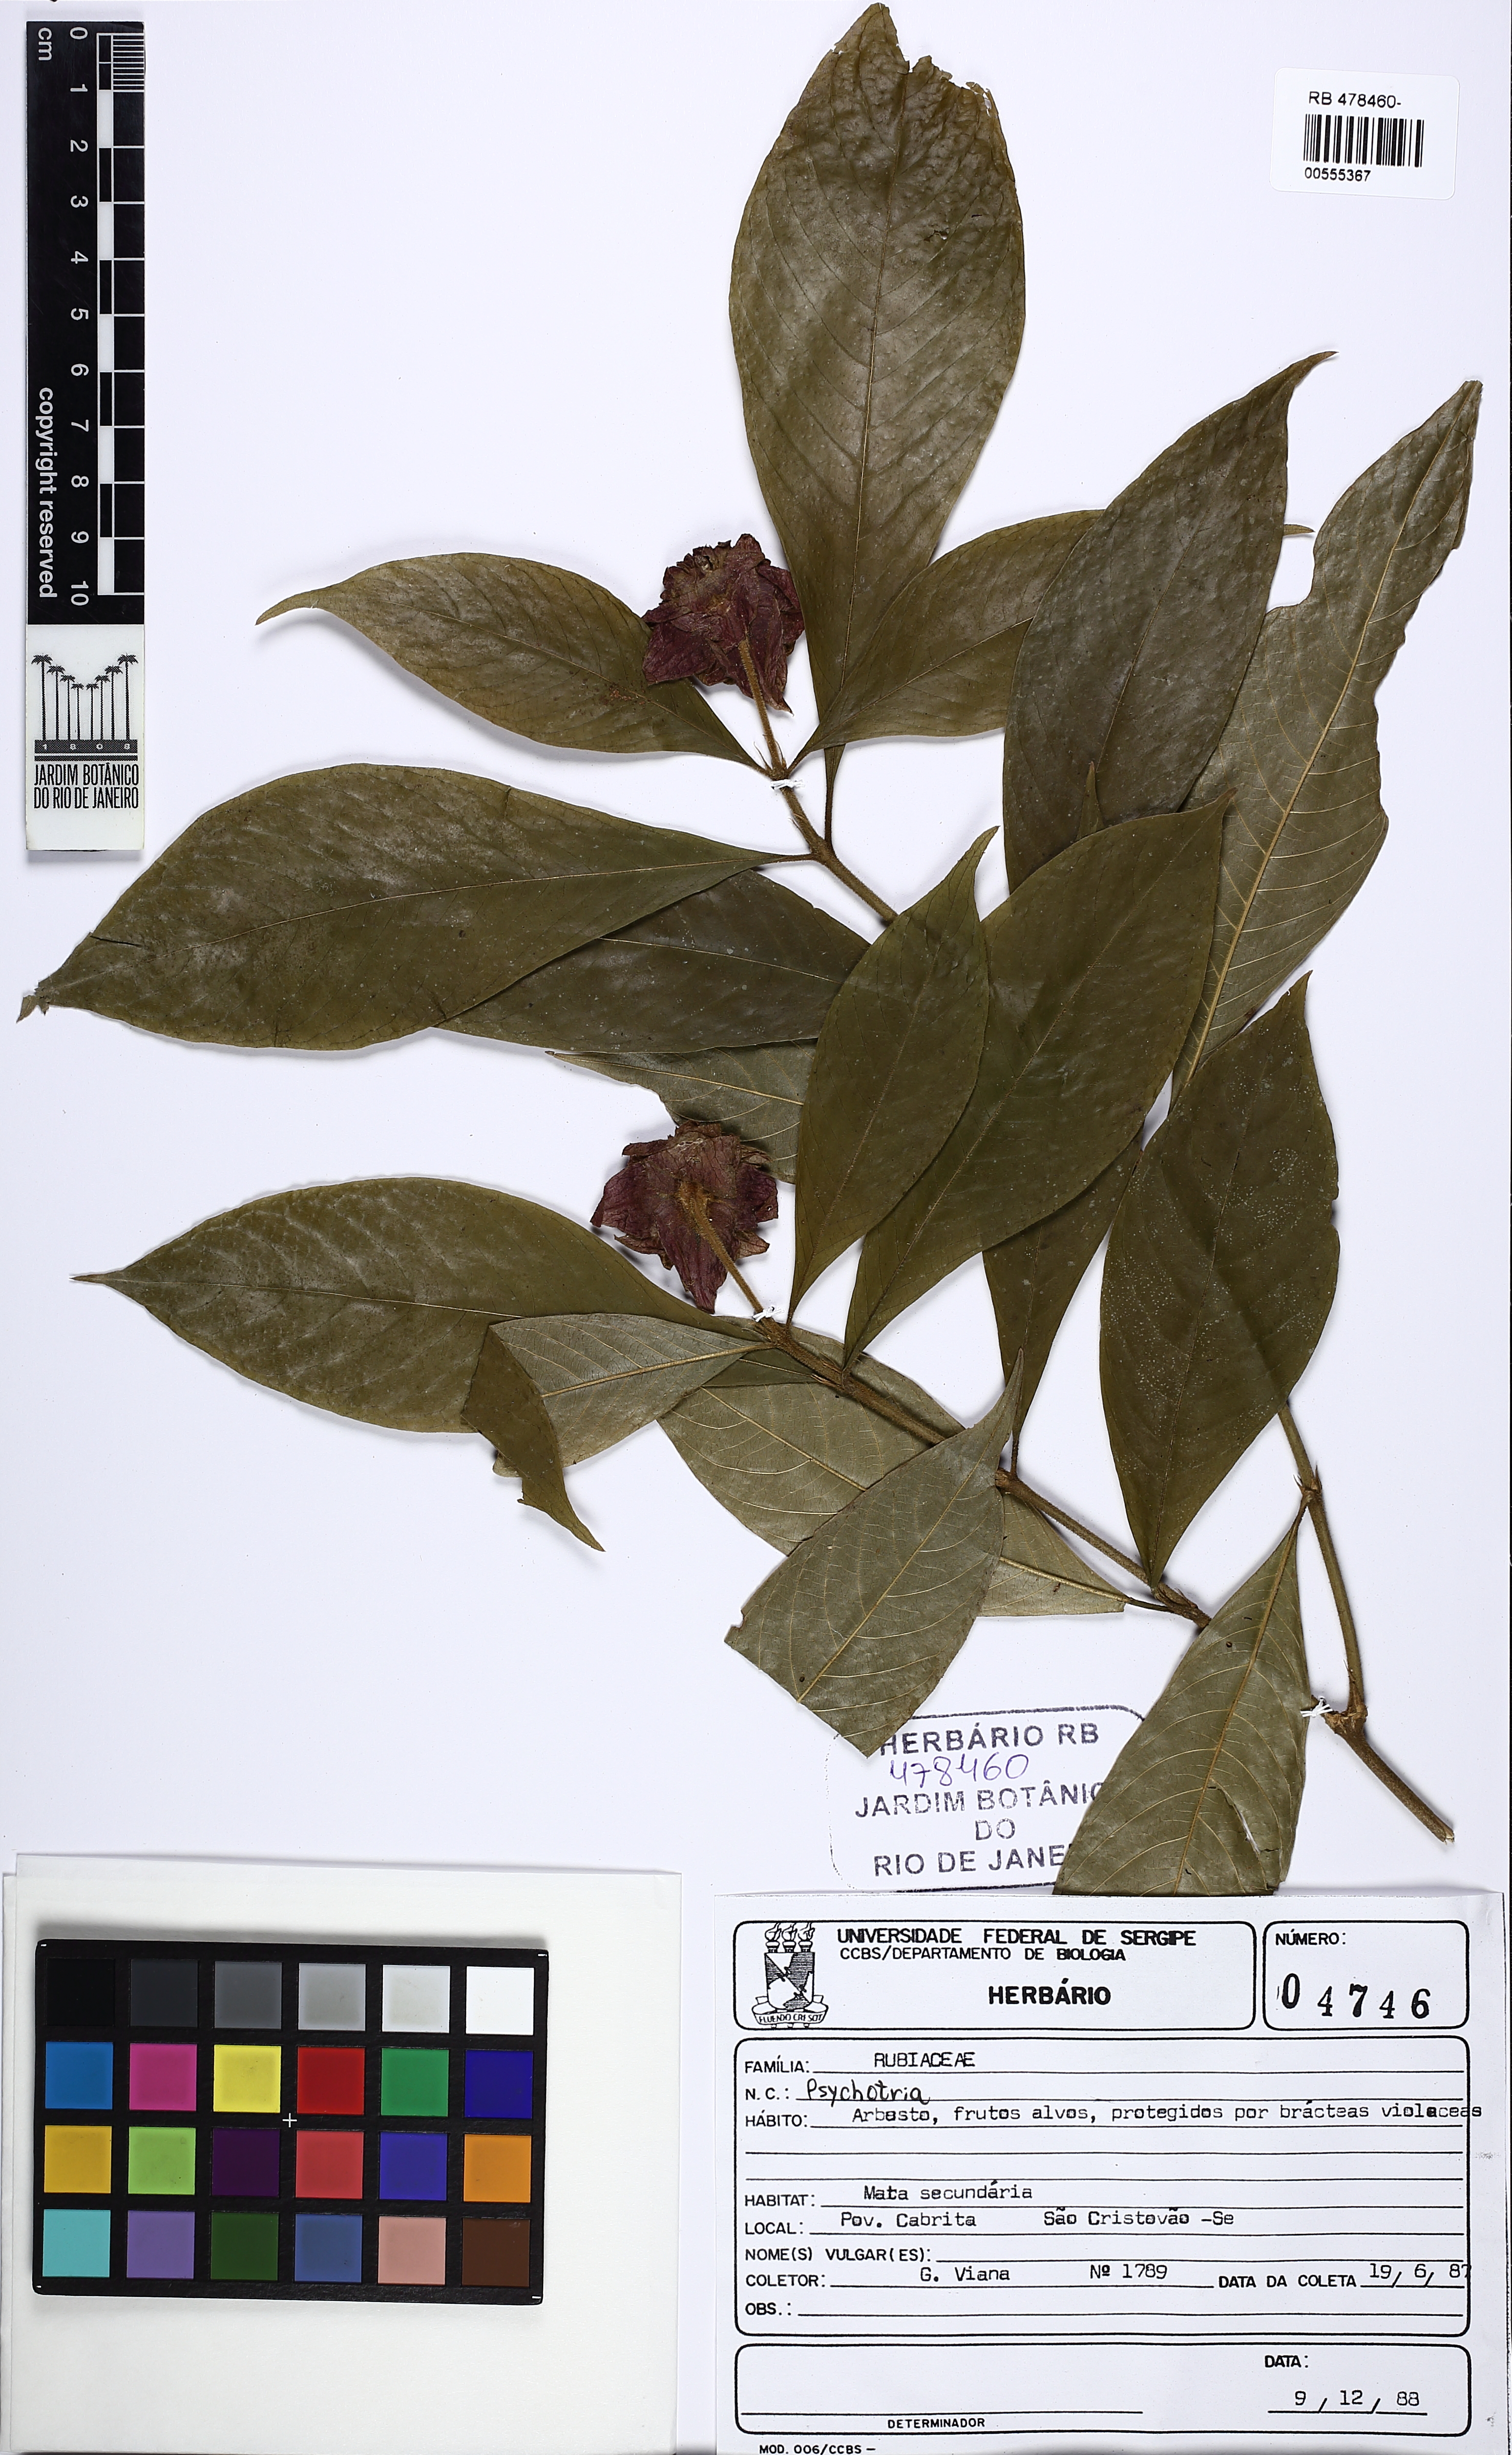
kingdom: Plantae
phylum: Tracheophyta
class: Magnoliopsida
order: Gentianales
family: Rubiaceae
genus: Palicourea
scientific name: Palicourea bracteocardia
